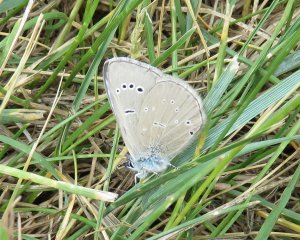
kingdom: Animalia
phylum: Arthropoda
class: Insecta
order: Lepidoptera
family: Lycaenidae
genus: Glaucopsyche
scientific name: Glaucopsyche lygdamus
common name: Silvery Blue
